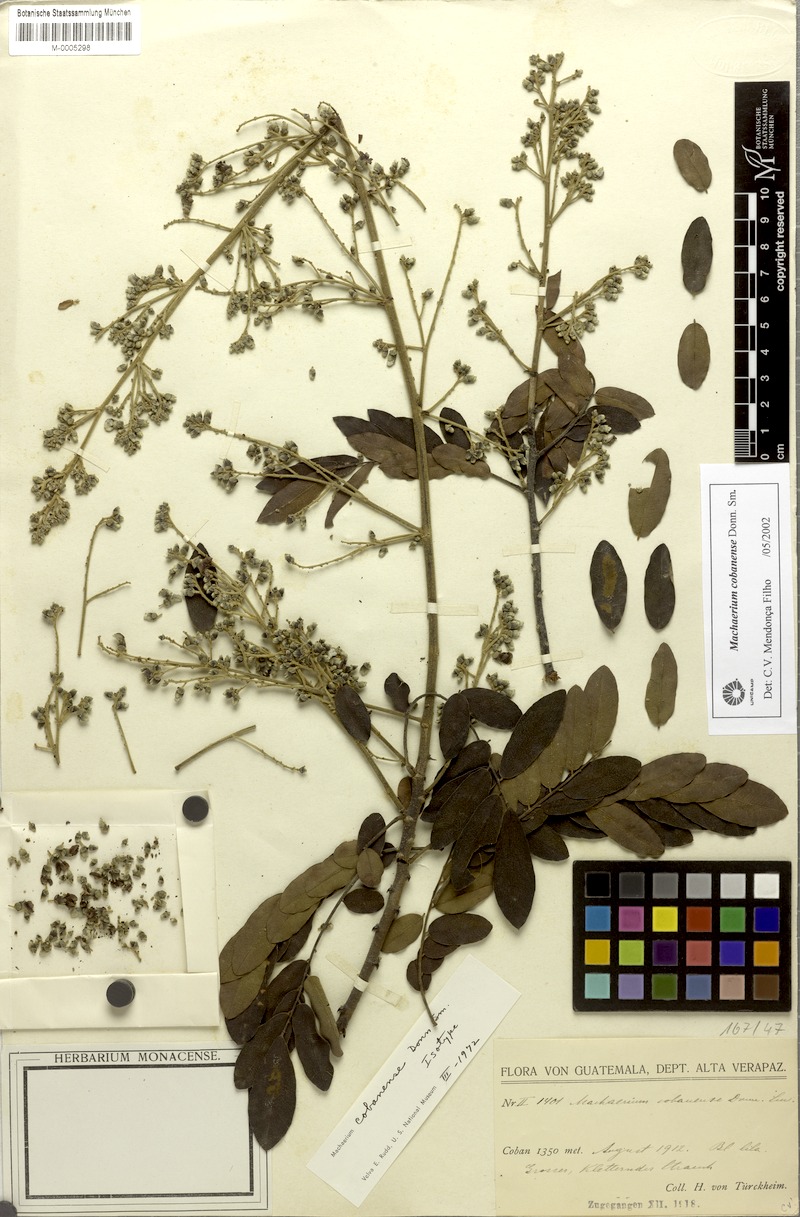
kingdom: Plantae
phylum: Tracheophyta
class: Magnoliopsida
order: Fabales
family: Fabaceae
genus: Machaerium
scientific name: Machaerium cobanense
